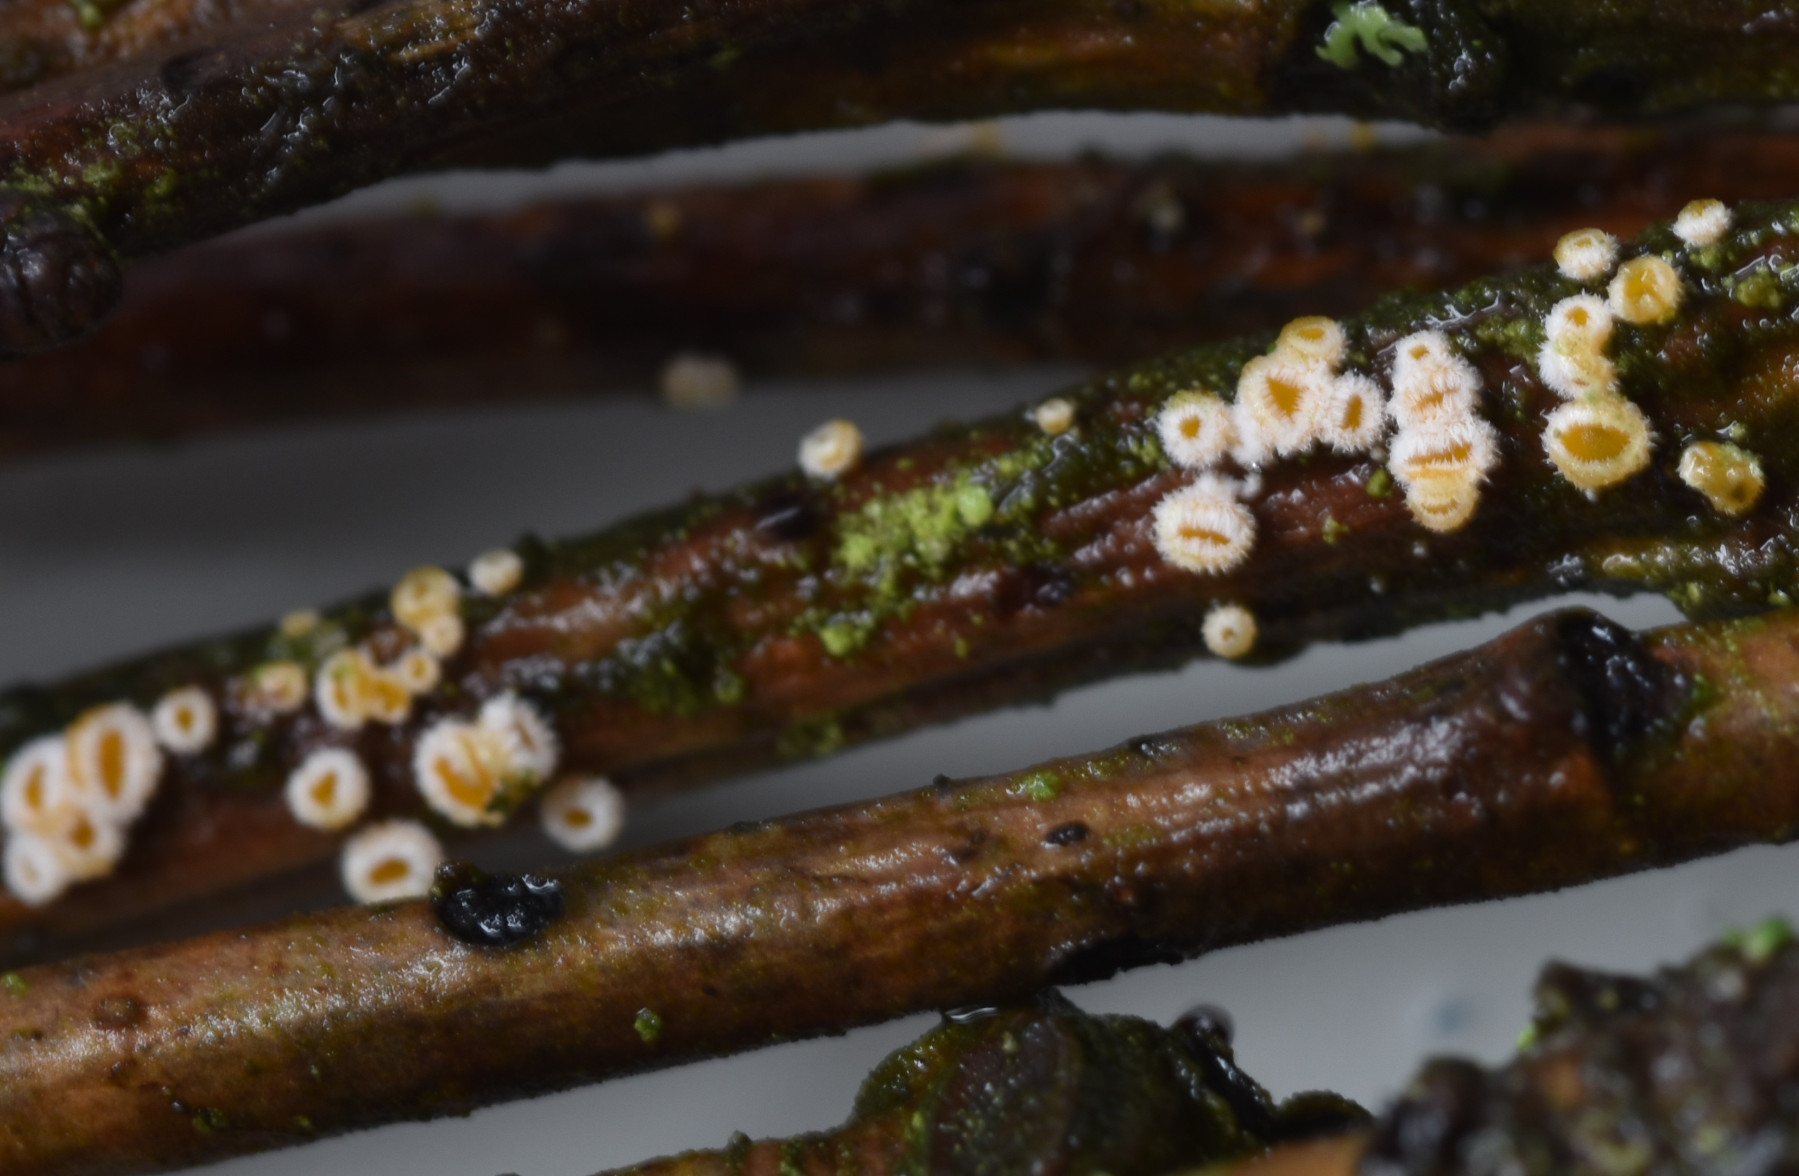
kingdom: Fungi
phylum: Ascomycota
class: Leotiomycetes
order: Helotiales
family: Lachnaceae
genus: Capitotricha
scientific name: Capitotricha bicolor
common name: prægtig frynseskive
